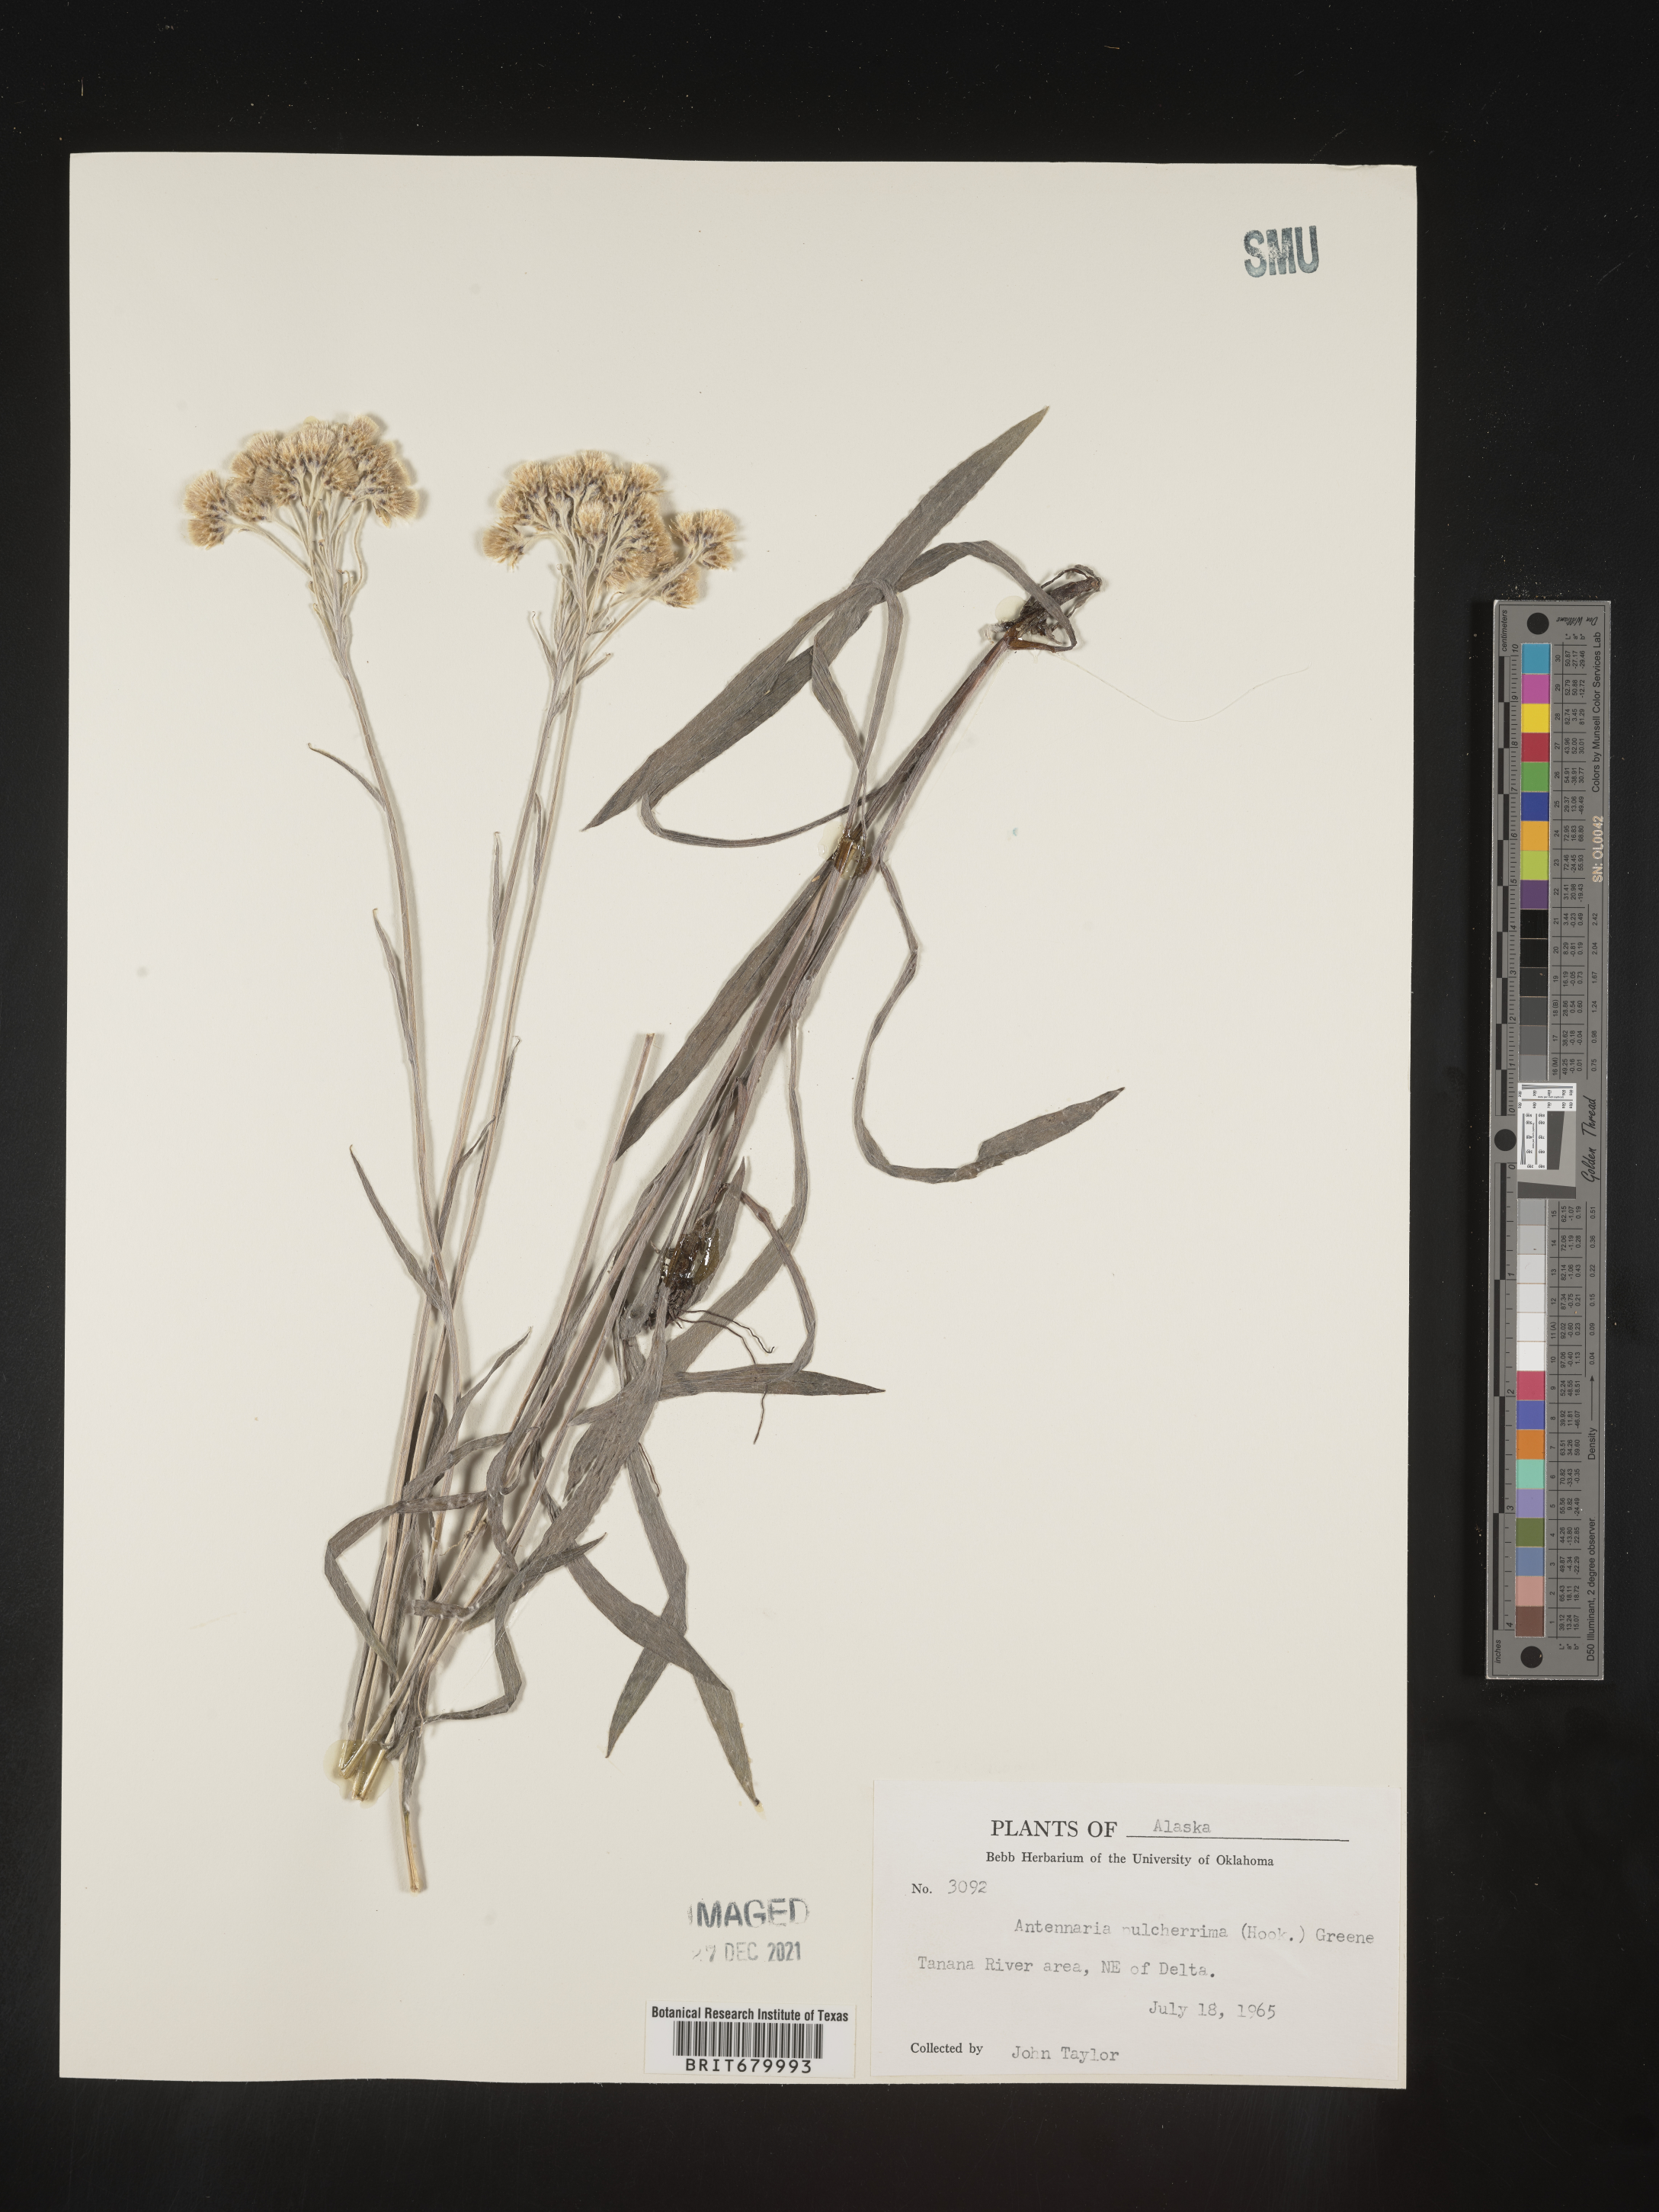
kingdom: Plantae
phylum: Tracheophyta
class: Magnoliopsida
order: Asterales
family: Asteraceae
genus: Antennaria
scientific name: Antennaria pulcherrima
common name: Handsome pussytoes
